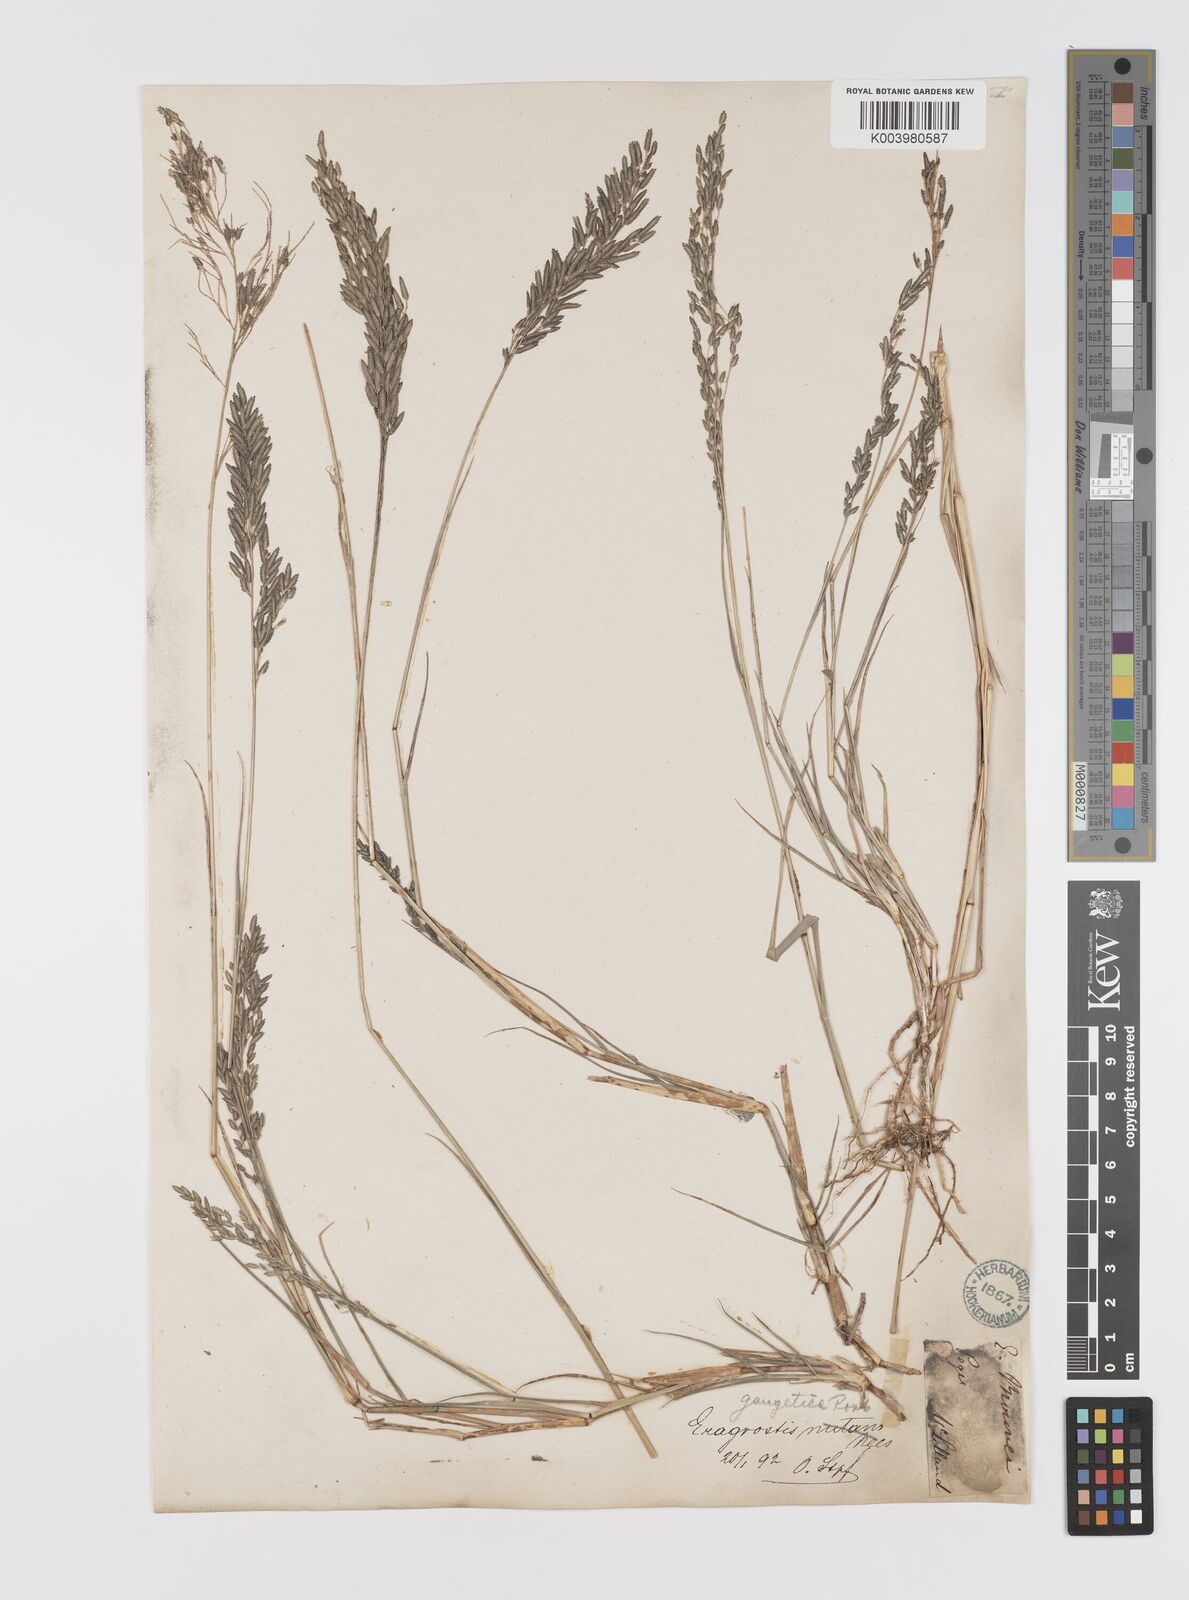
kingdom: Plantae
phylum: Tracheophyta
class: Liliopsida
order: Poales
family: Poaceae
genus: Eragrostis
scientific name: Eragrostis atrovirens
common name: Thalia lovegrass
